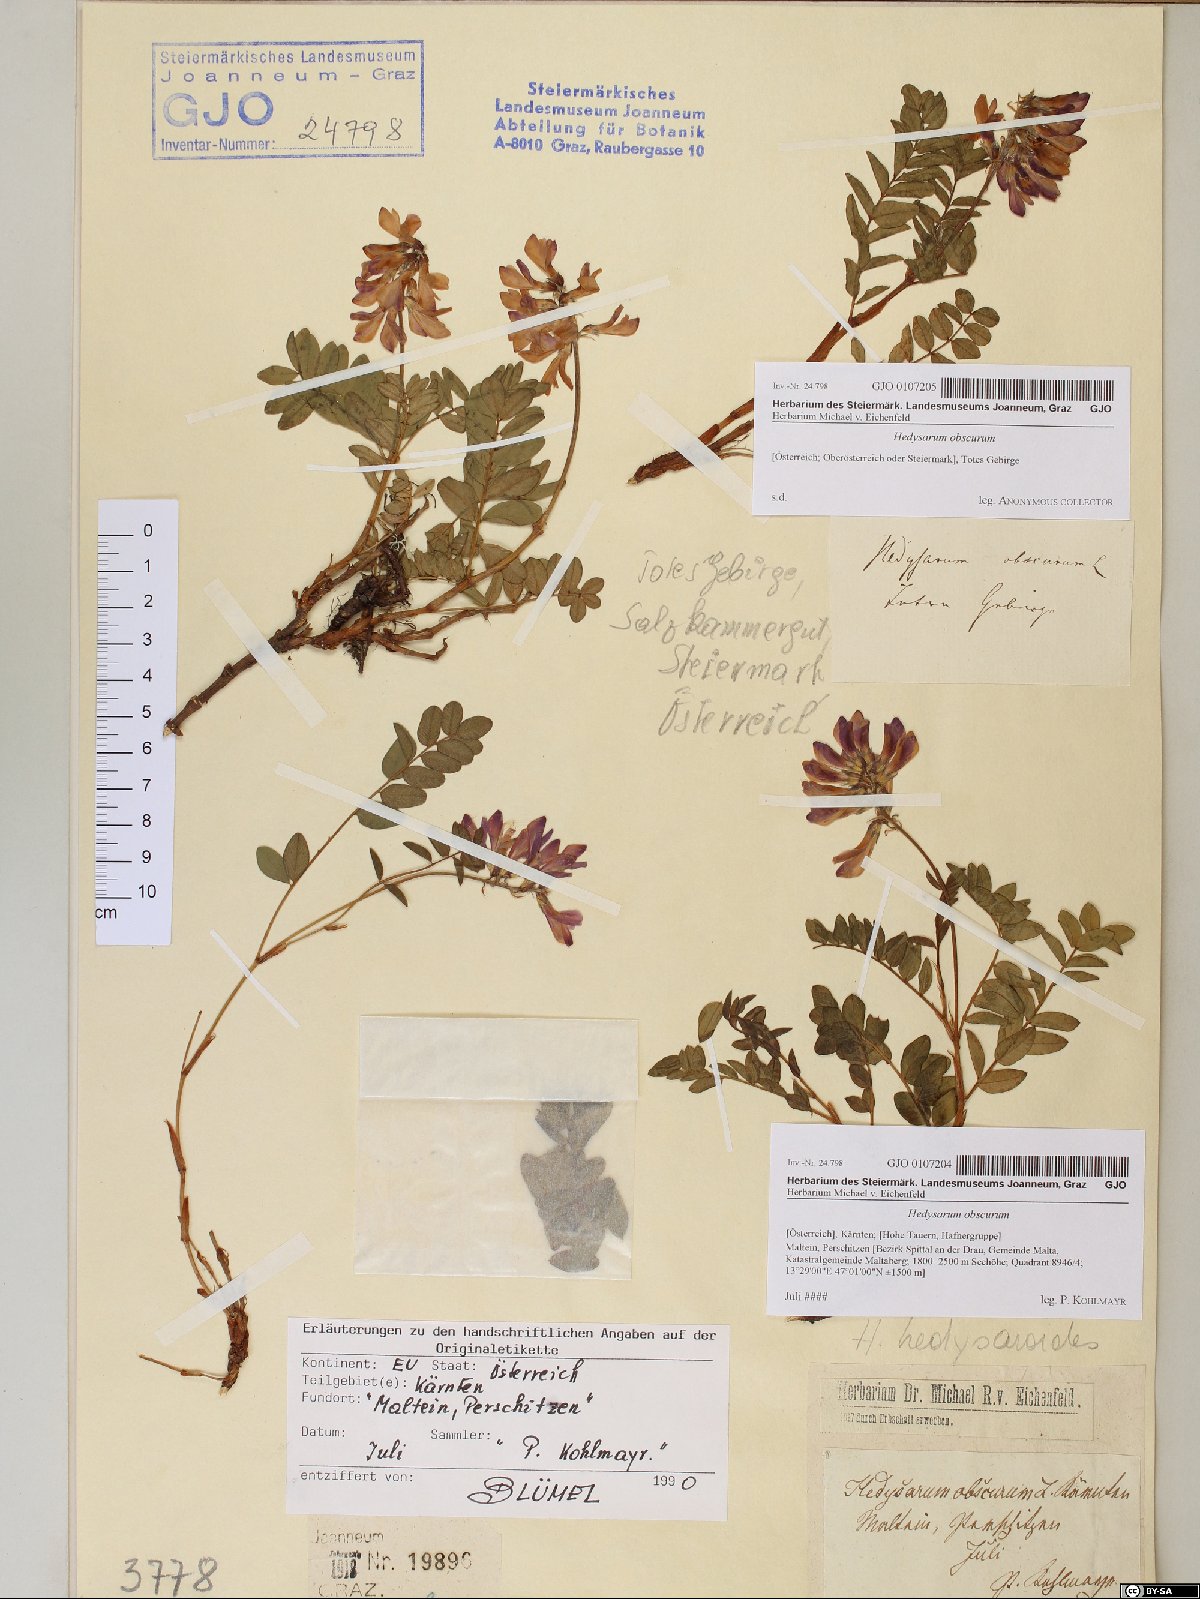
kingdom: Plantae
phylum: Tracheophyta
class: Magnoliopsida
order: Fabales
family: Fabaceae
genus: Hedysarum
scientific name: Hedysarum hedysaroides
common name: Alpine french-honeysuckle
